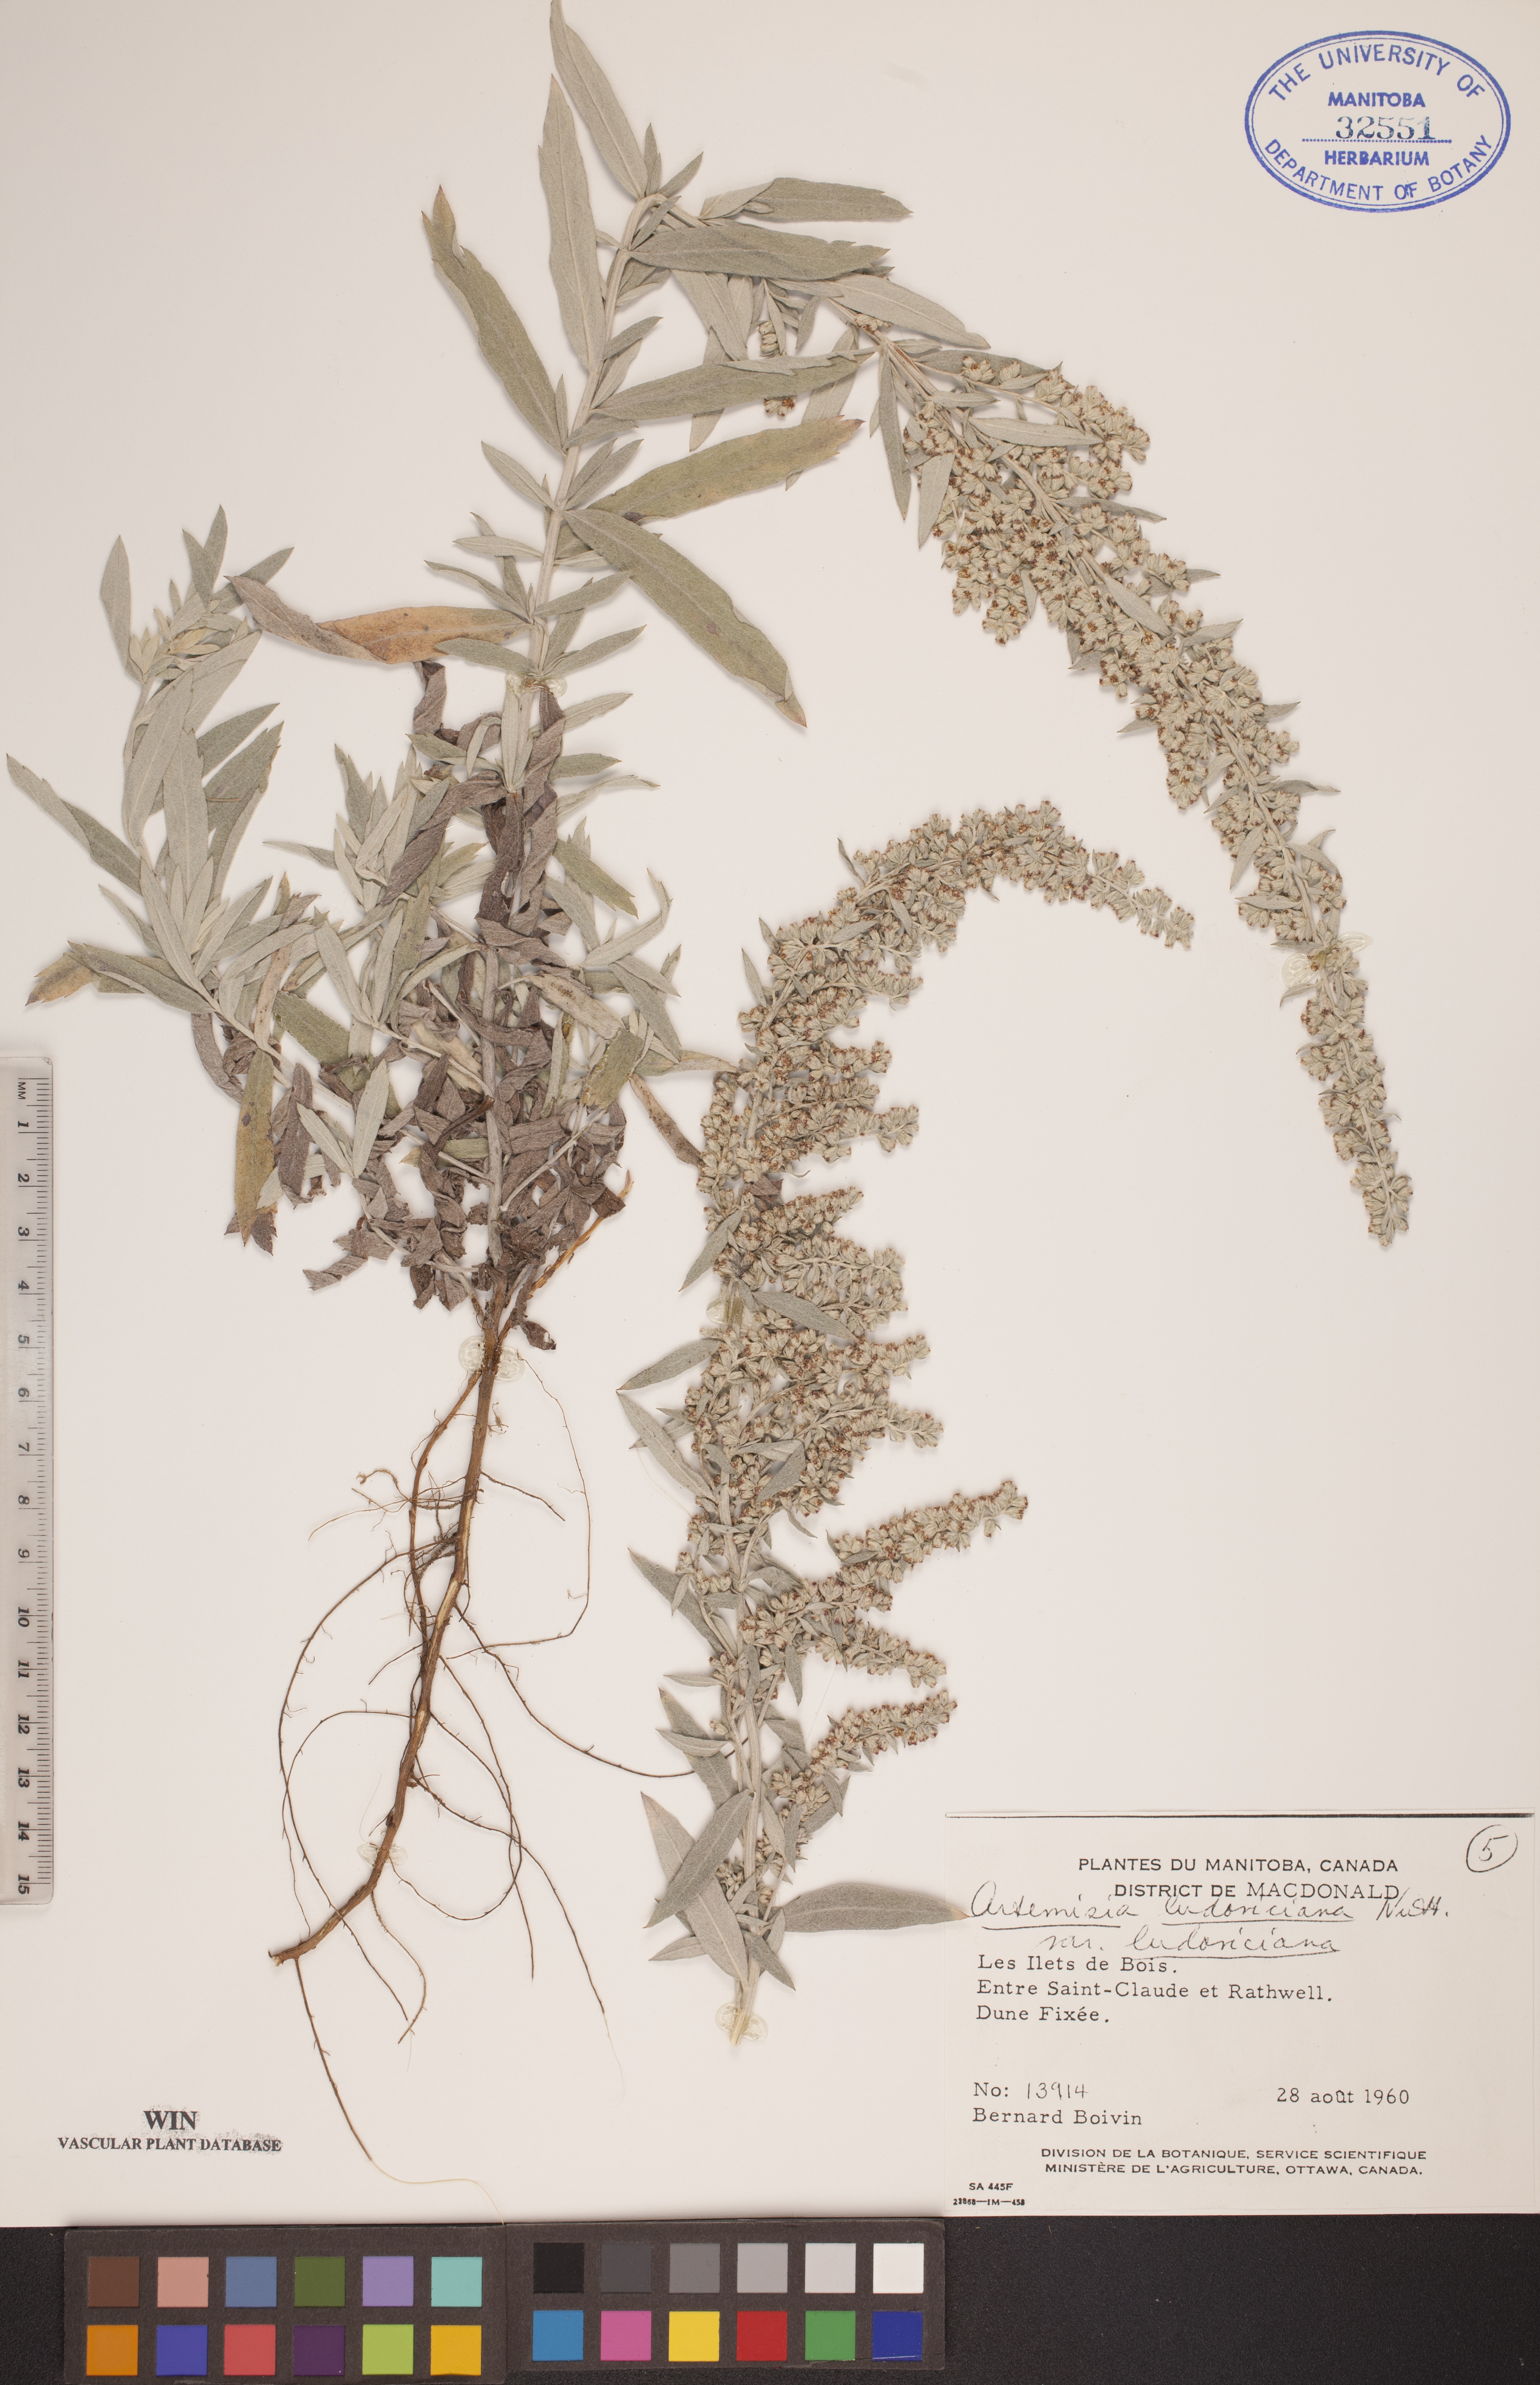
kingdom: Plantae
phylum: Tracheophyta
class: Magnoliopsida
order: Asterales
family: Asteraceae
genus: Artemisia
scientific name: Artemisia ludoviciana
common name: Western mugwort
